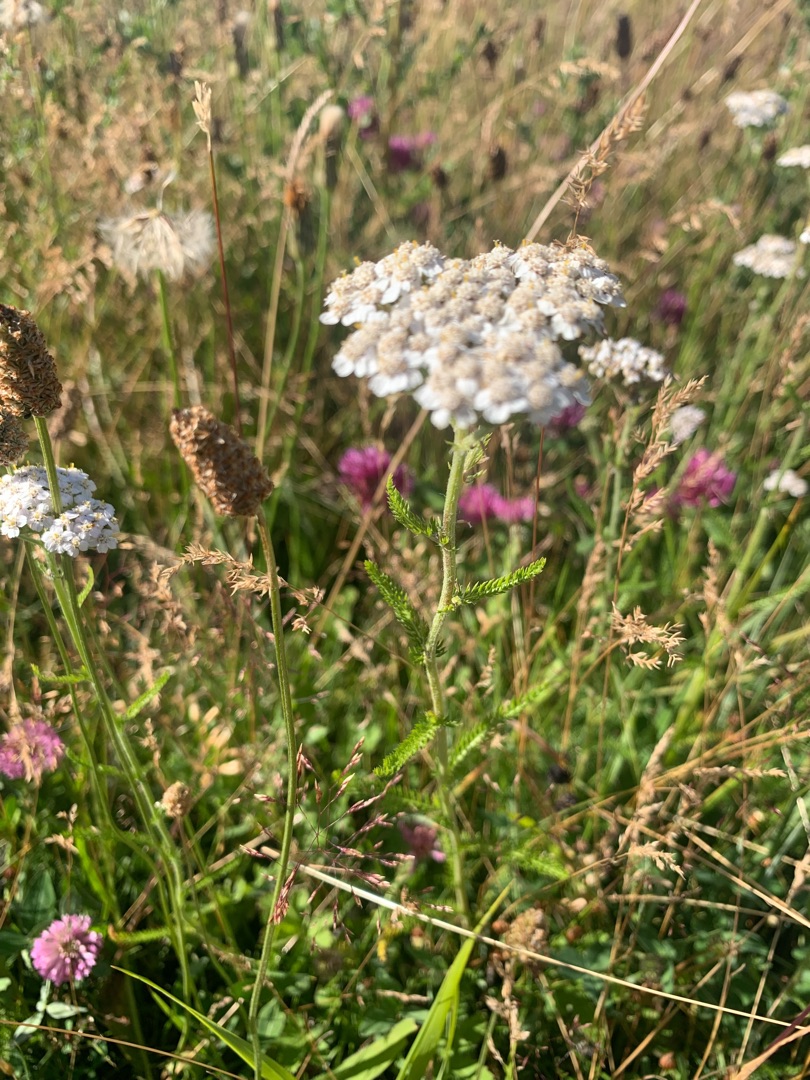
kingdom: Plantae
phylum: Tracheophyta
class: Magnoliopsida
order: Asterales
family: Asteraceae
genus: Achillea
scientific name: Achillea millefolium
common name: Almindelig røllike
